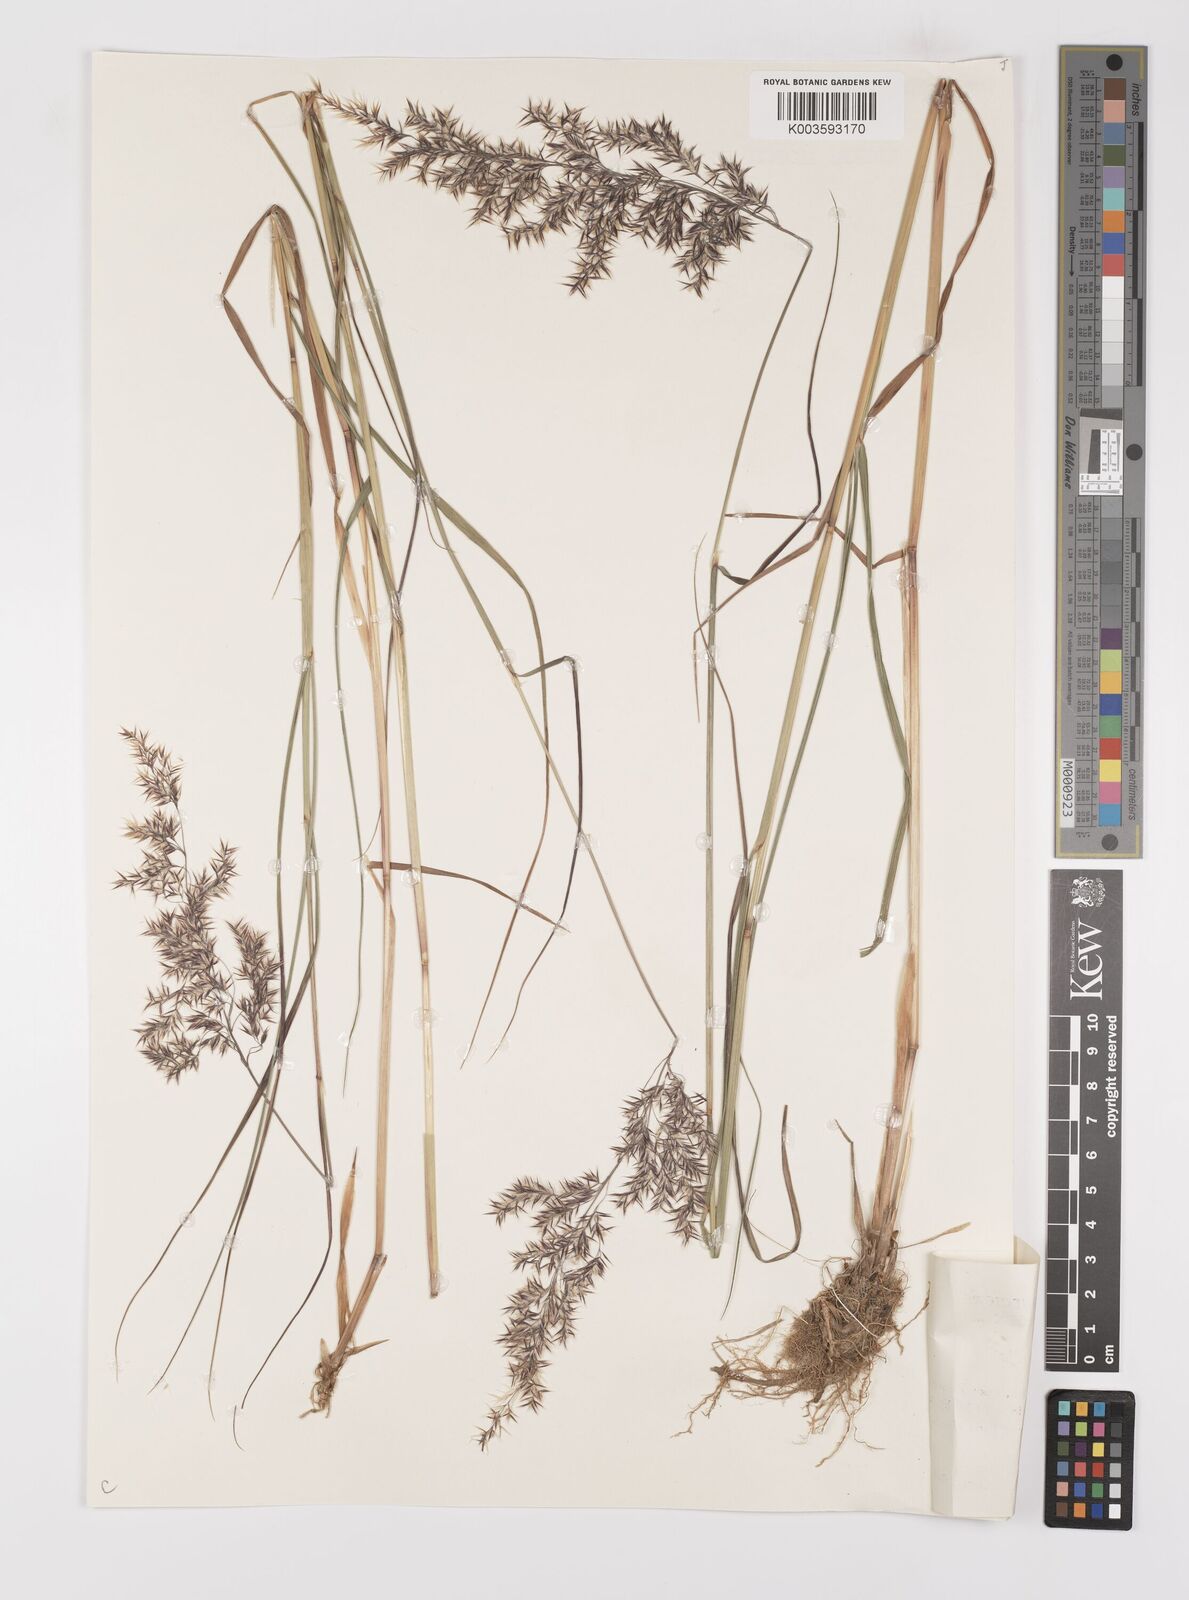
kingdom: Plantae
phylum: Tracheophyta
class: Liliopsida
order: Poales
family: Poaceae
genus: Calamagrostis
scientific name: Calamagrostis
